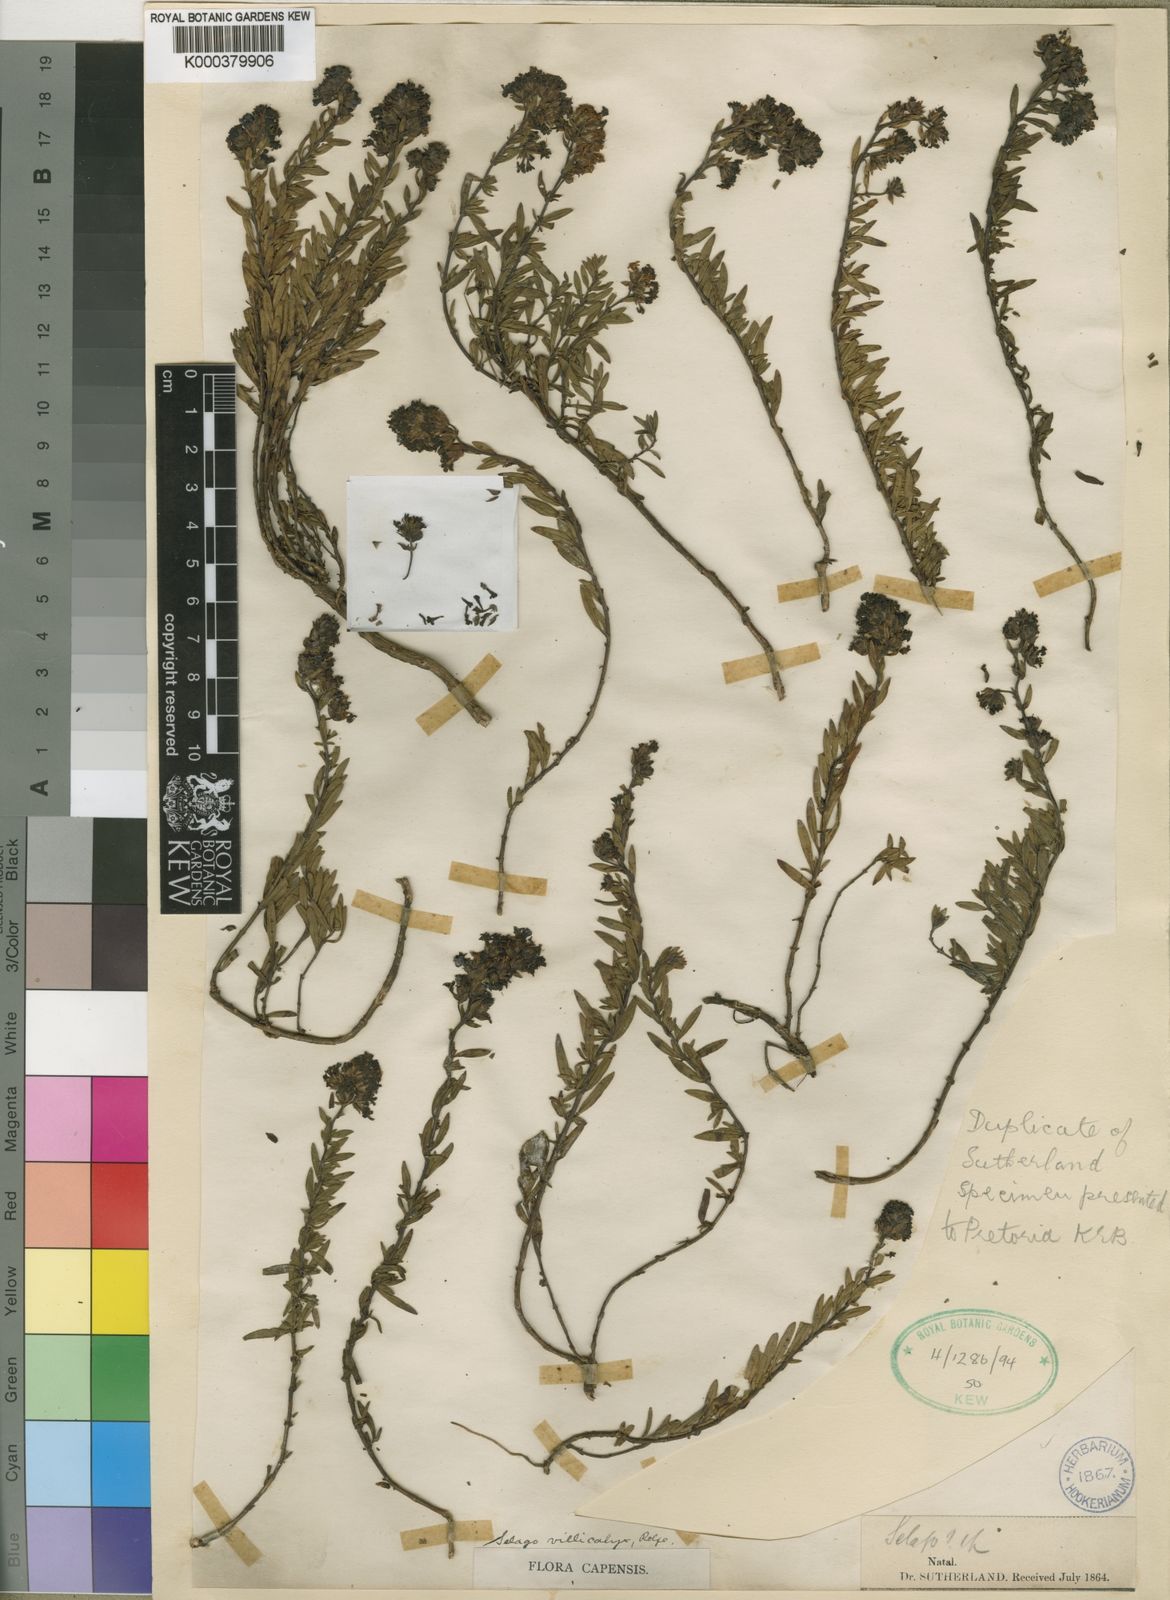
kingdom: Plantae
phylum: Tracheophyta
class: Magnoliopsida
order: Lamiales
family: Scrophulariaceae
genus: Selago
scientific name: Selago pachypoda
